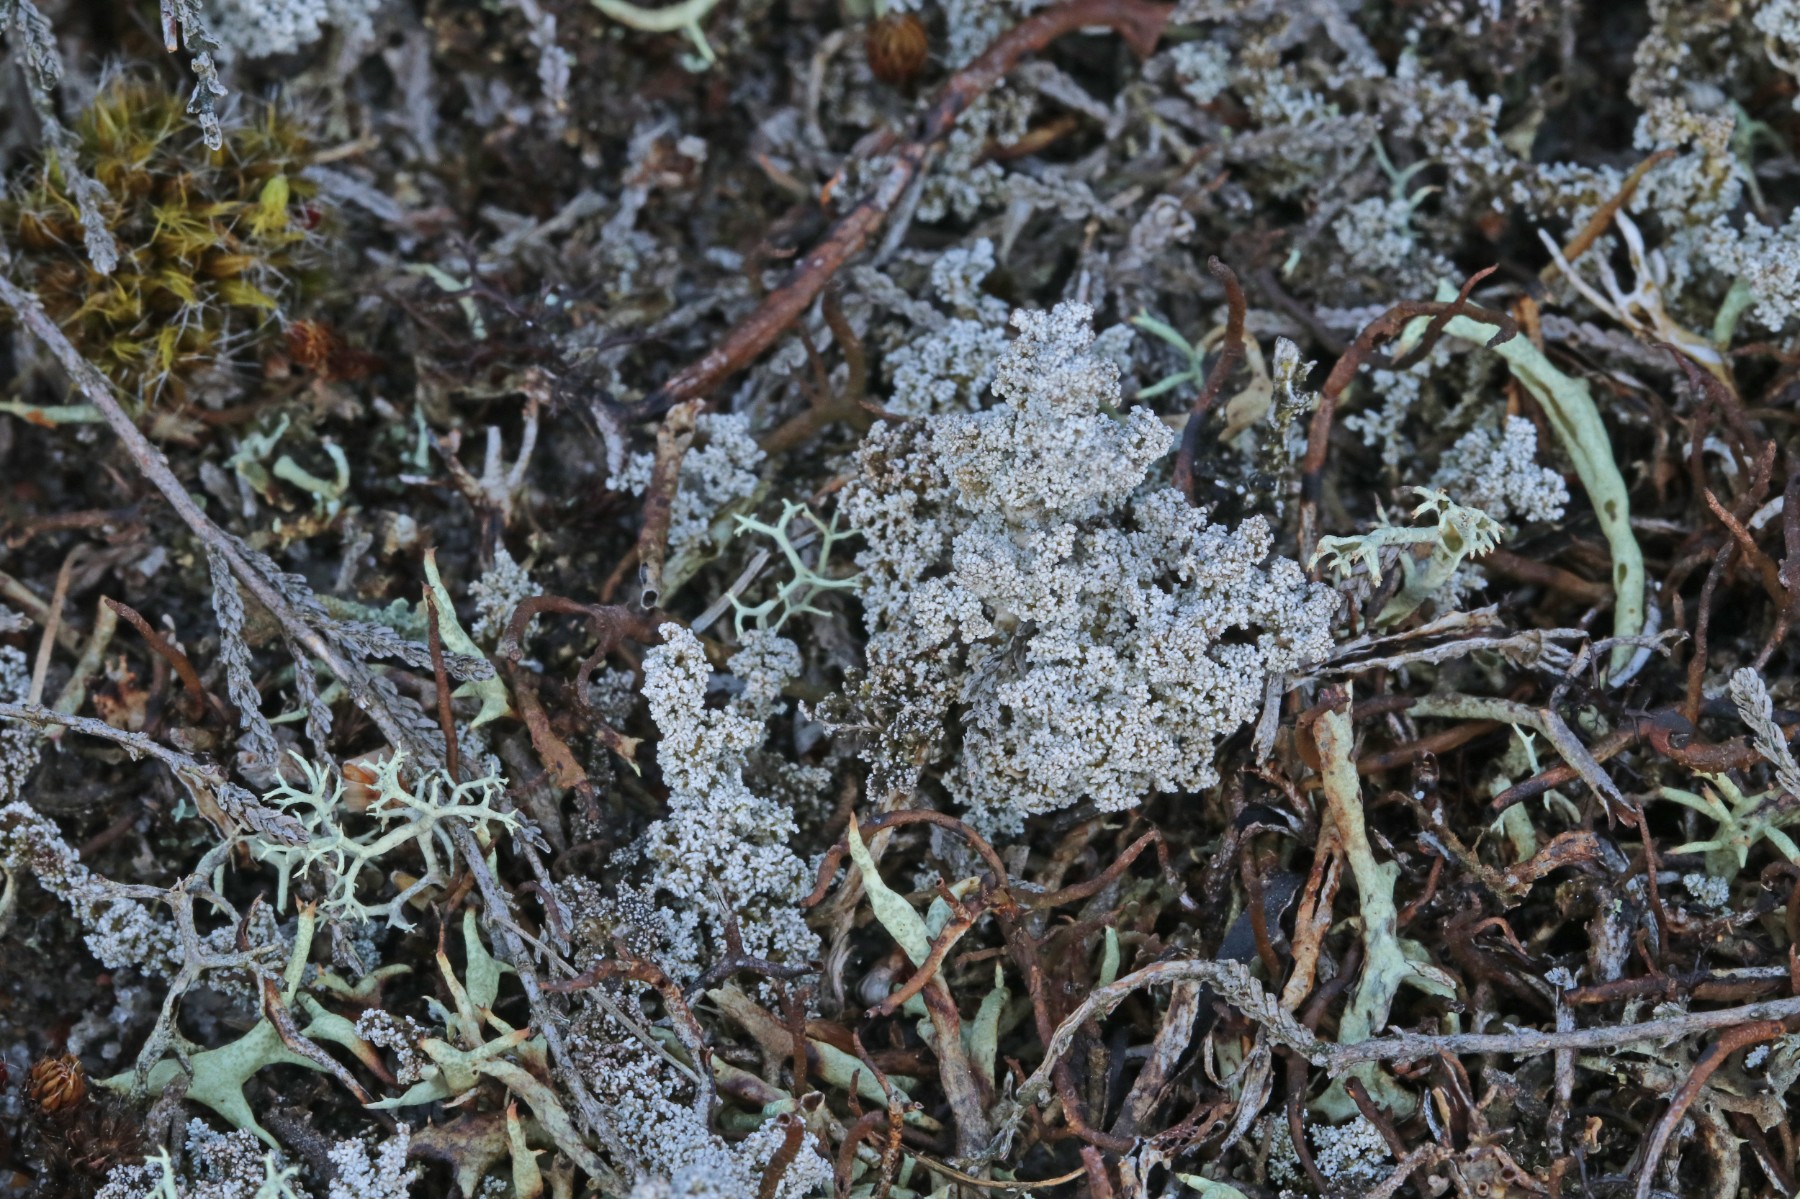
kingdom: Fungi
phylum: Ascomycota
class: Lecanoromycetes
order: Lecanorales
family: Stereocaulaceae
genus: Stereocaulon
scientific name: Stereocaulon saxatile
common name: klit-korallav
